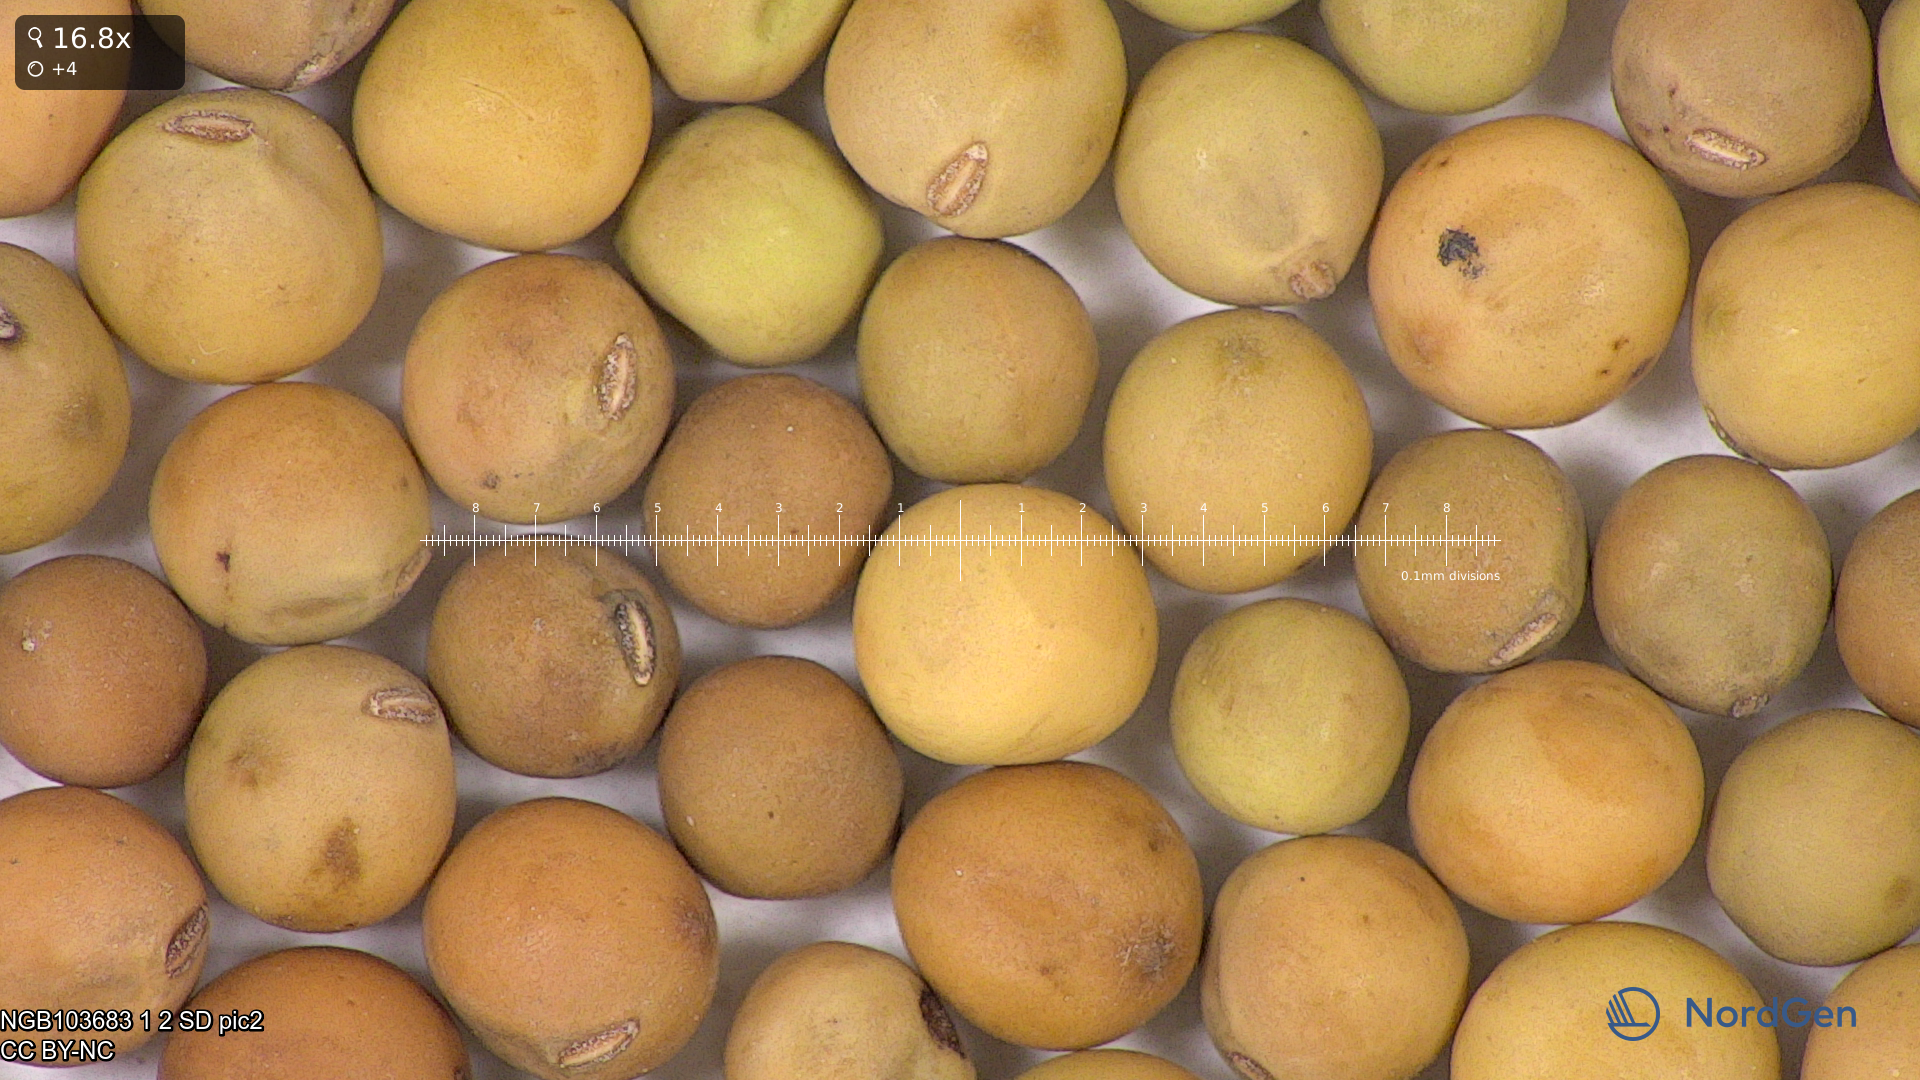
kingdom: Plantae
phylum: Tracheophyta
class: Magnoliopsida
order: Fabales
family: Fabaceae
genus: Lathyrus
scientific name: Lathyrus oleraceus
